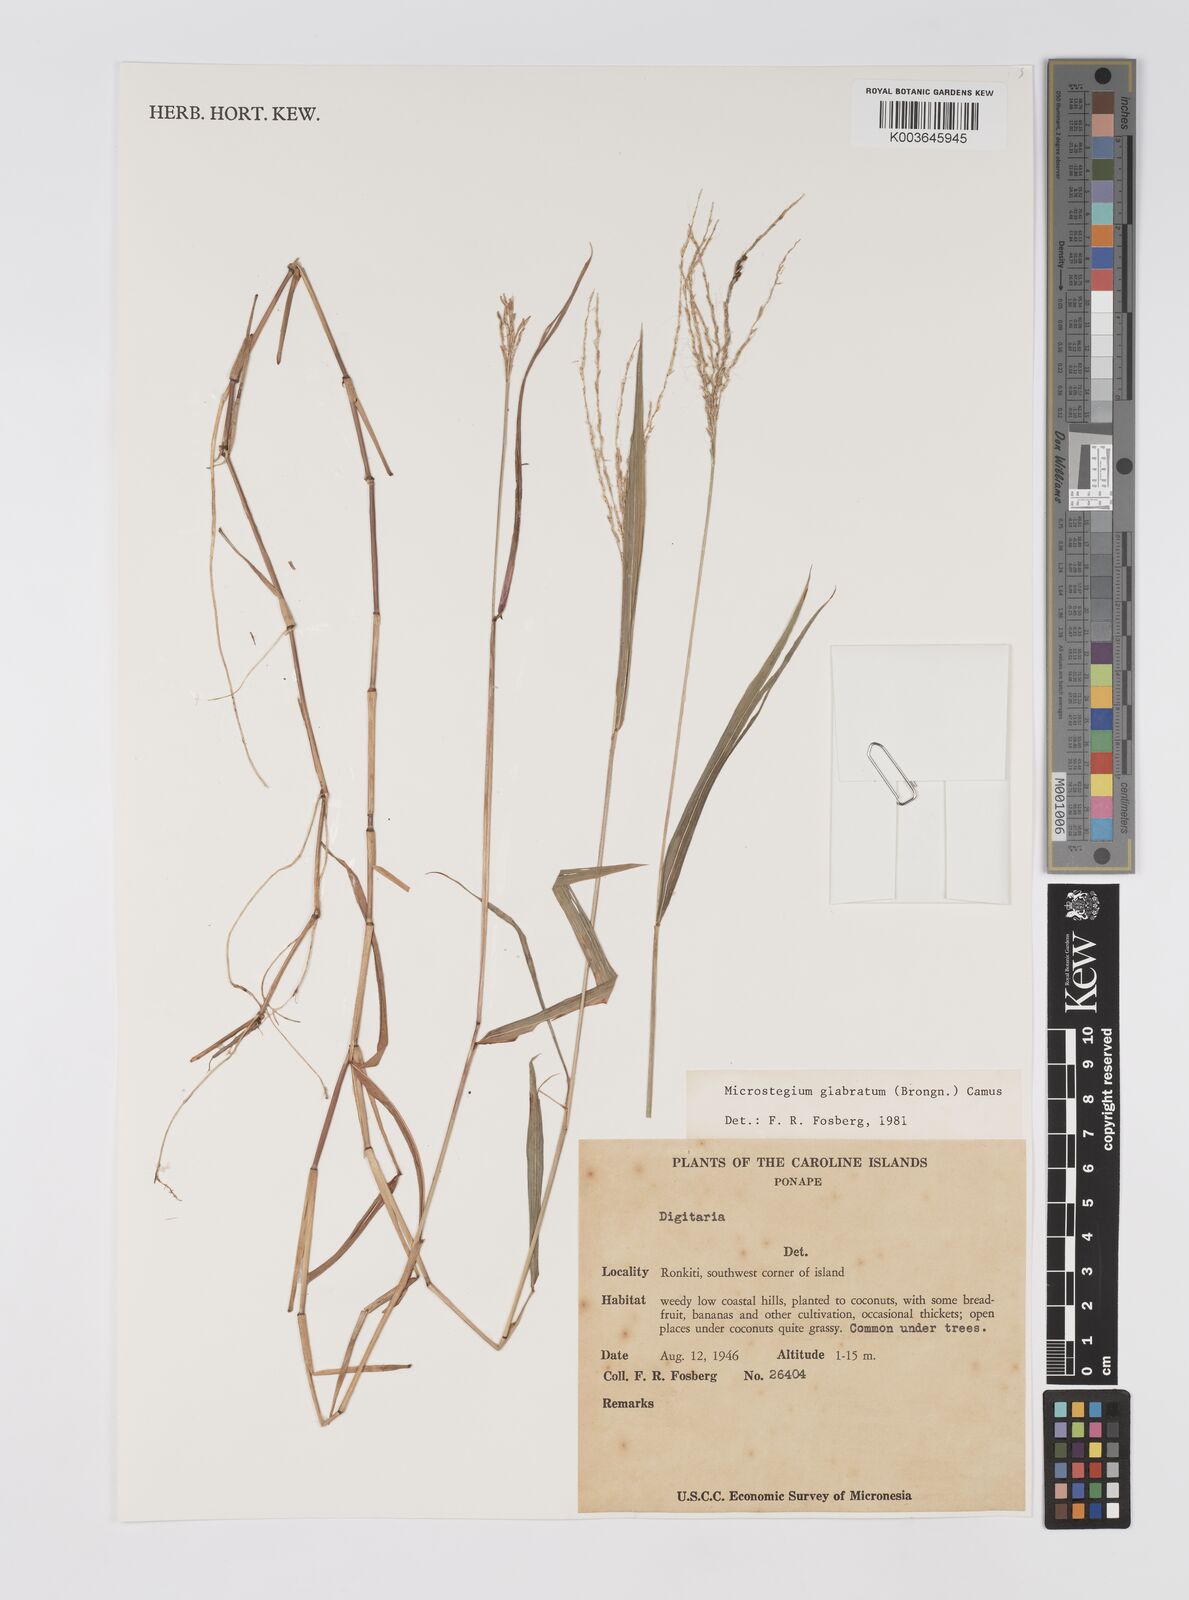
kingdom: Plantae
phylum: Tracheophyta
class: Liliopsida
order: Poales
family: Poaceae
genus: Microstegium
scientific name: Microstegium glabratum
